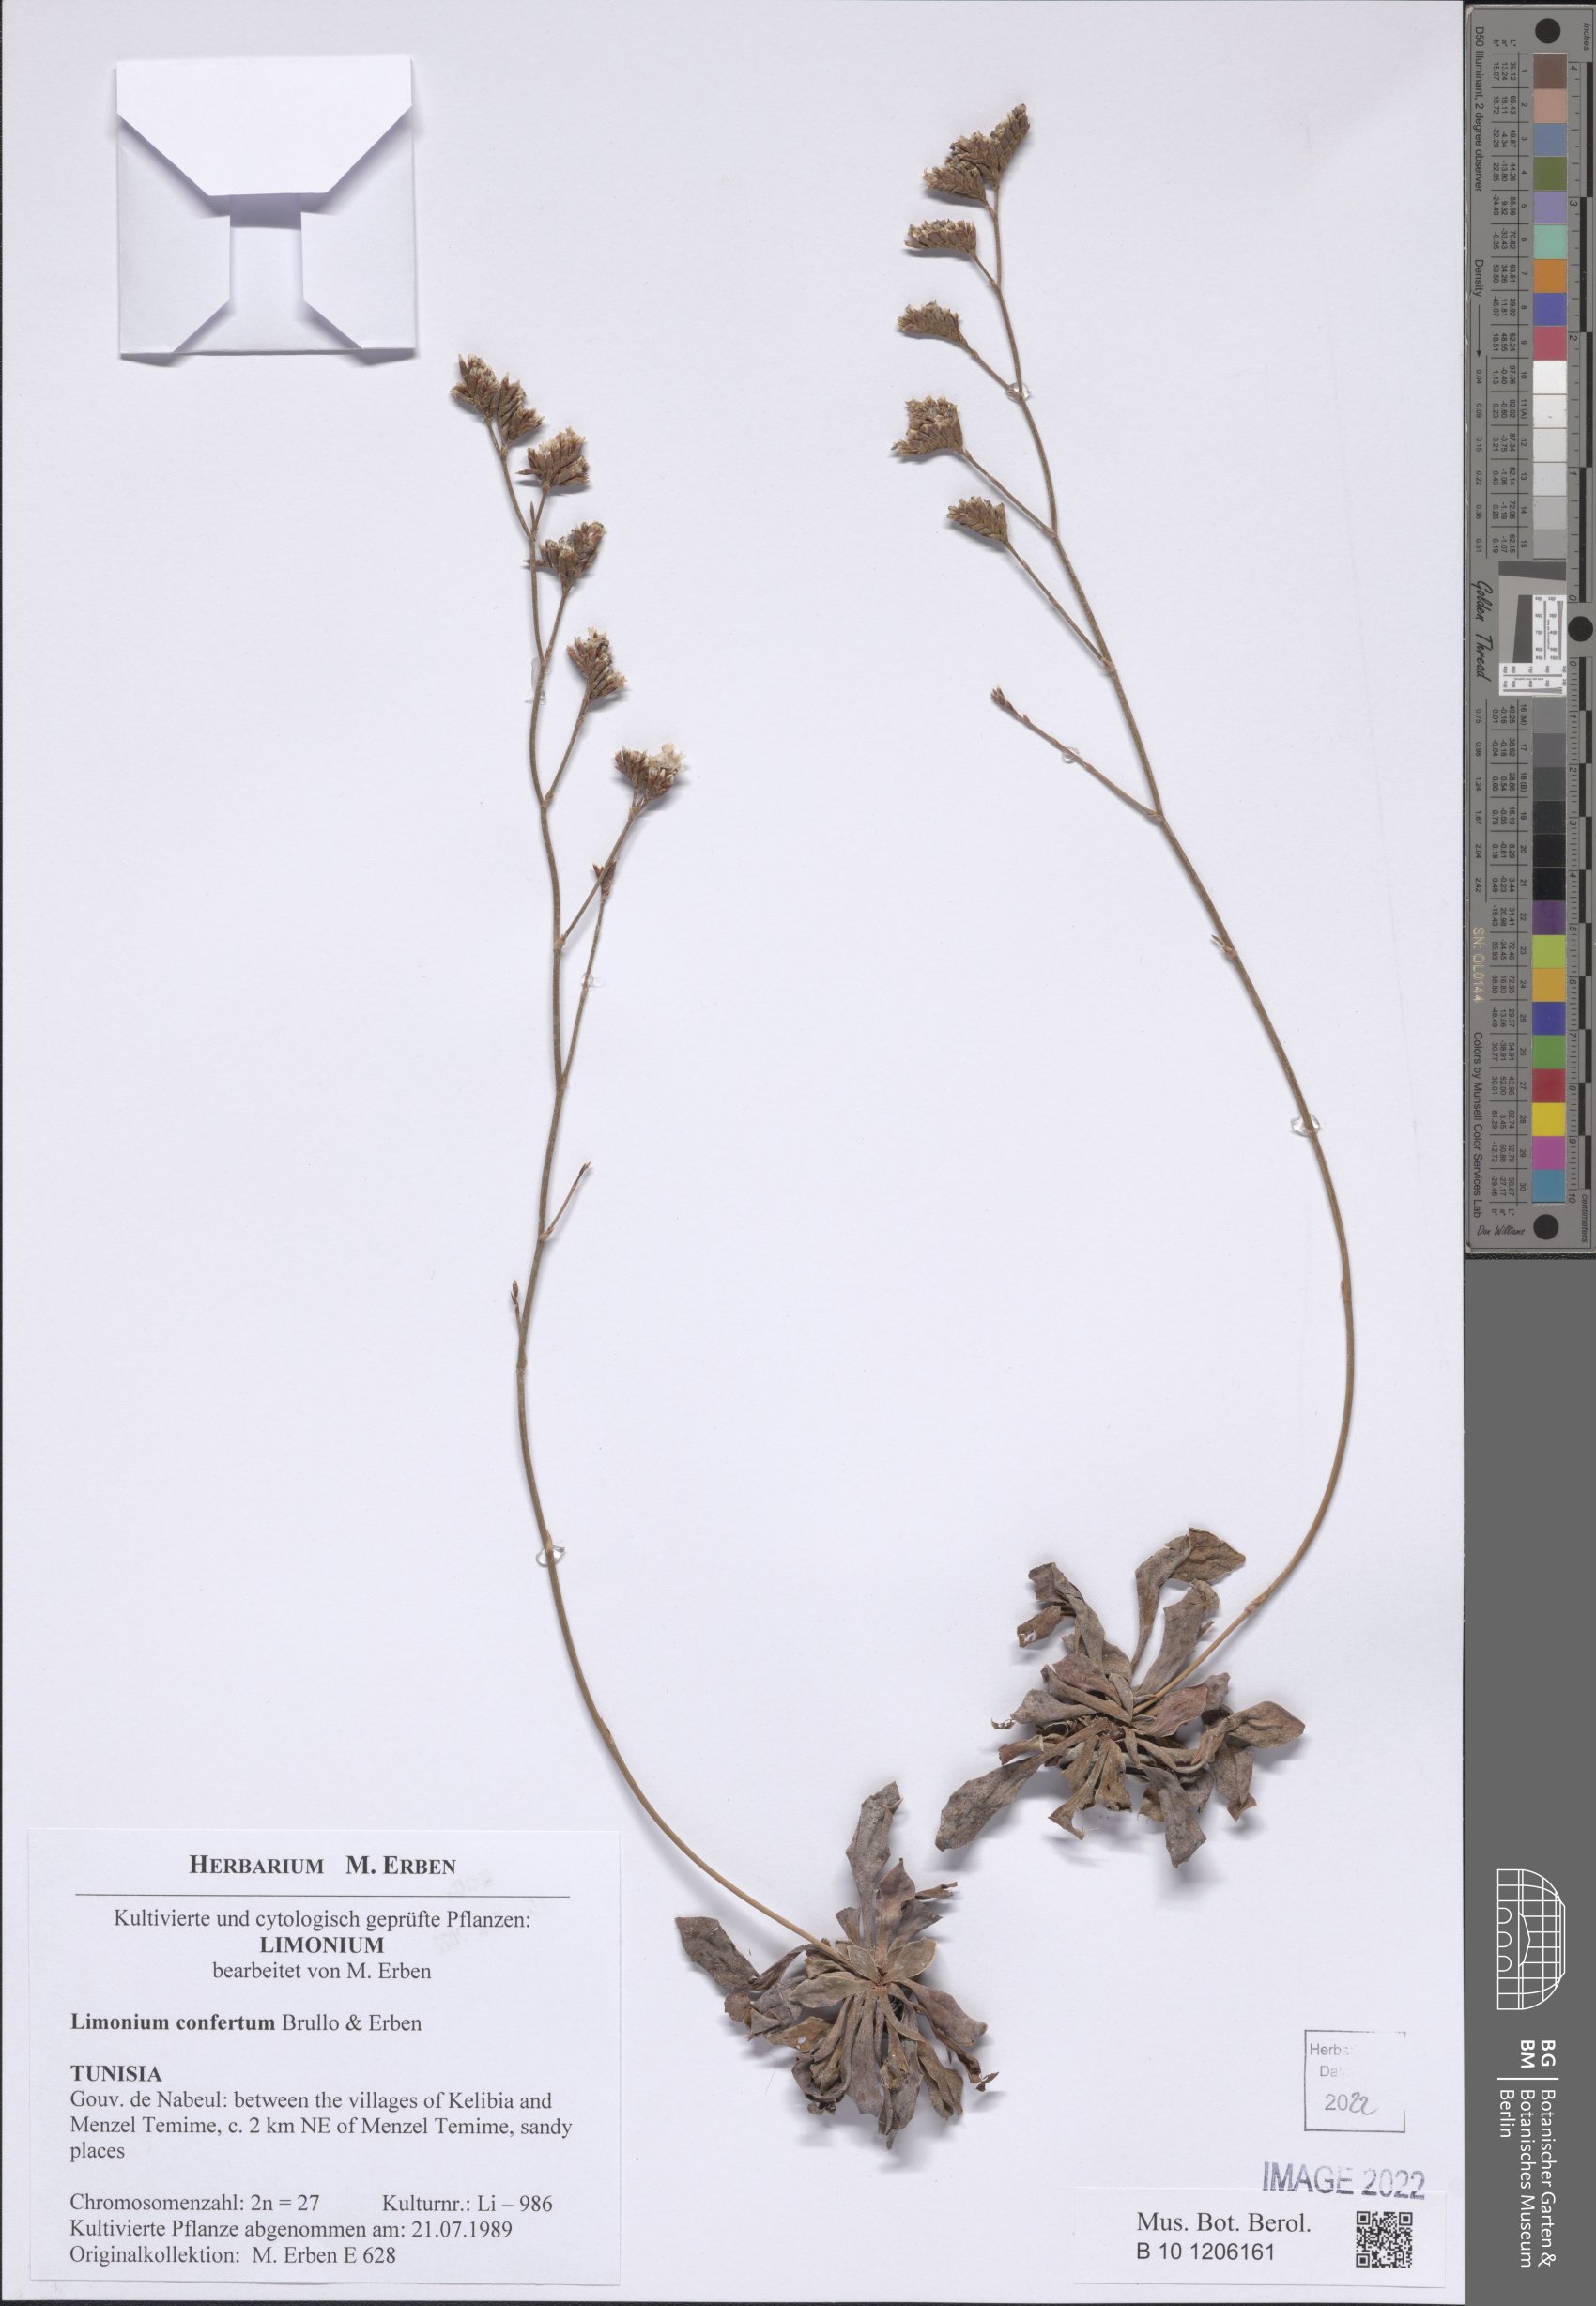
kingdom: Plantae
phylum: Tracheophyta
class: Magnoliopsida
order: Caryophyllales
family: Plumbaginaceae
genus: Limonium
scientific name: Limonium confertum
